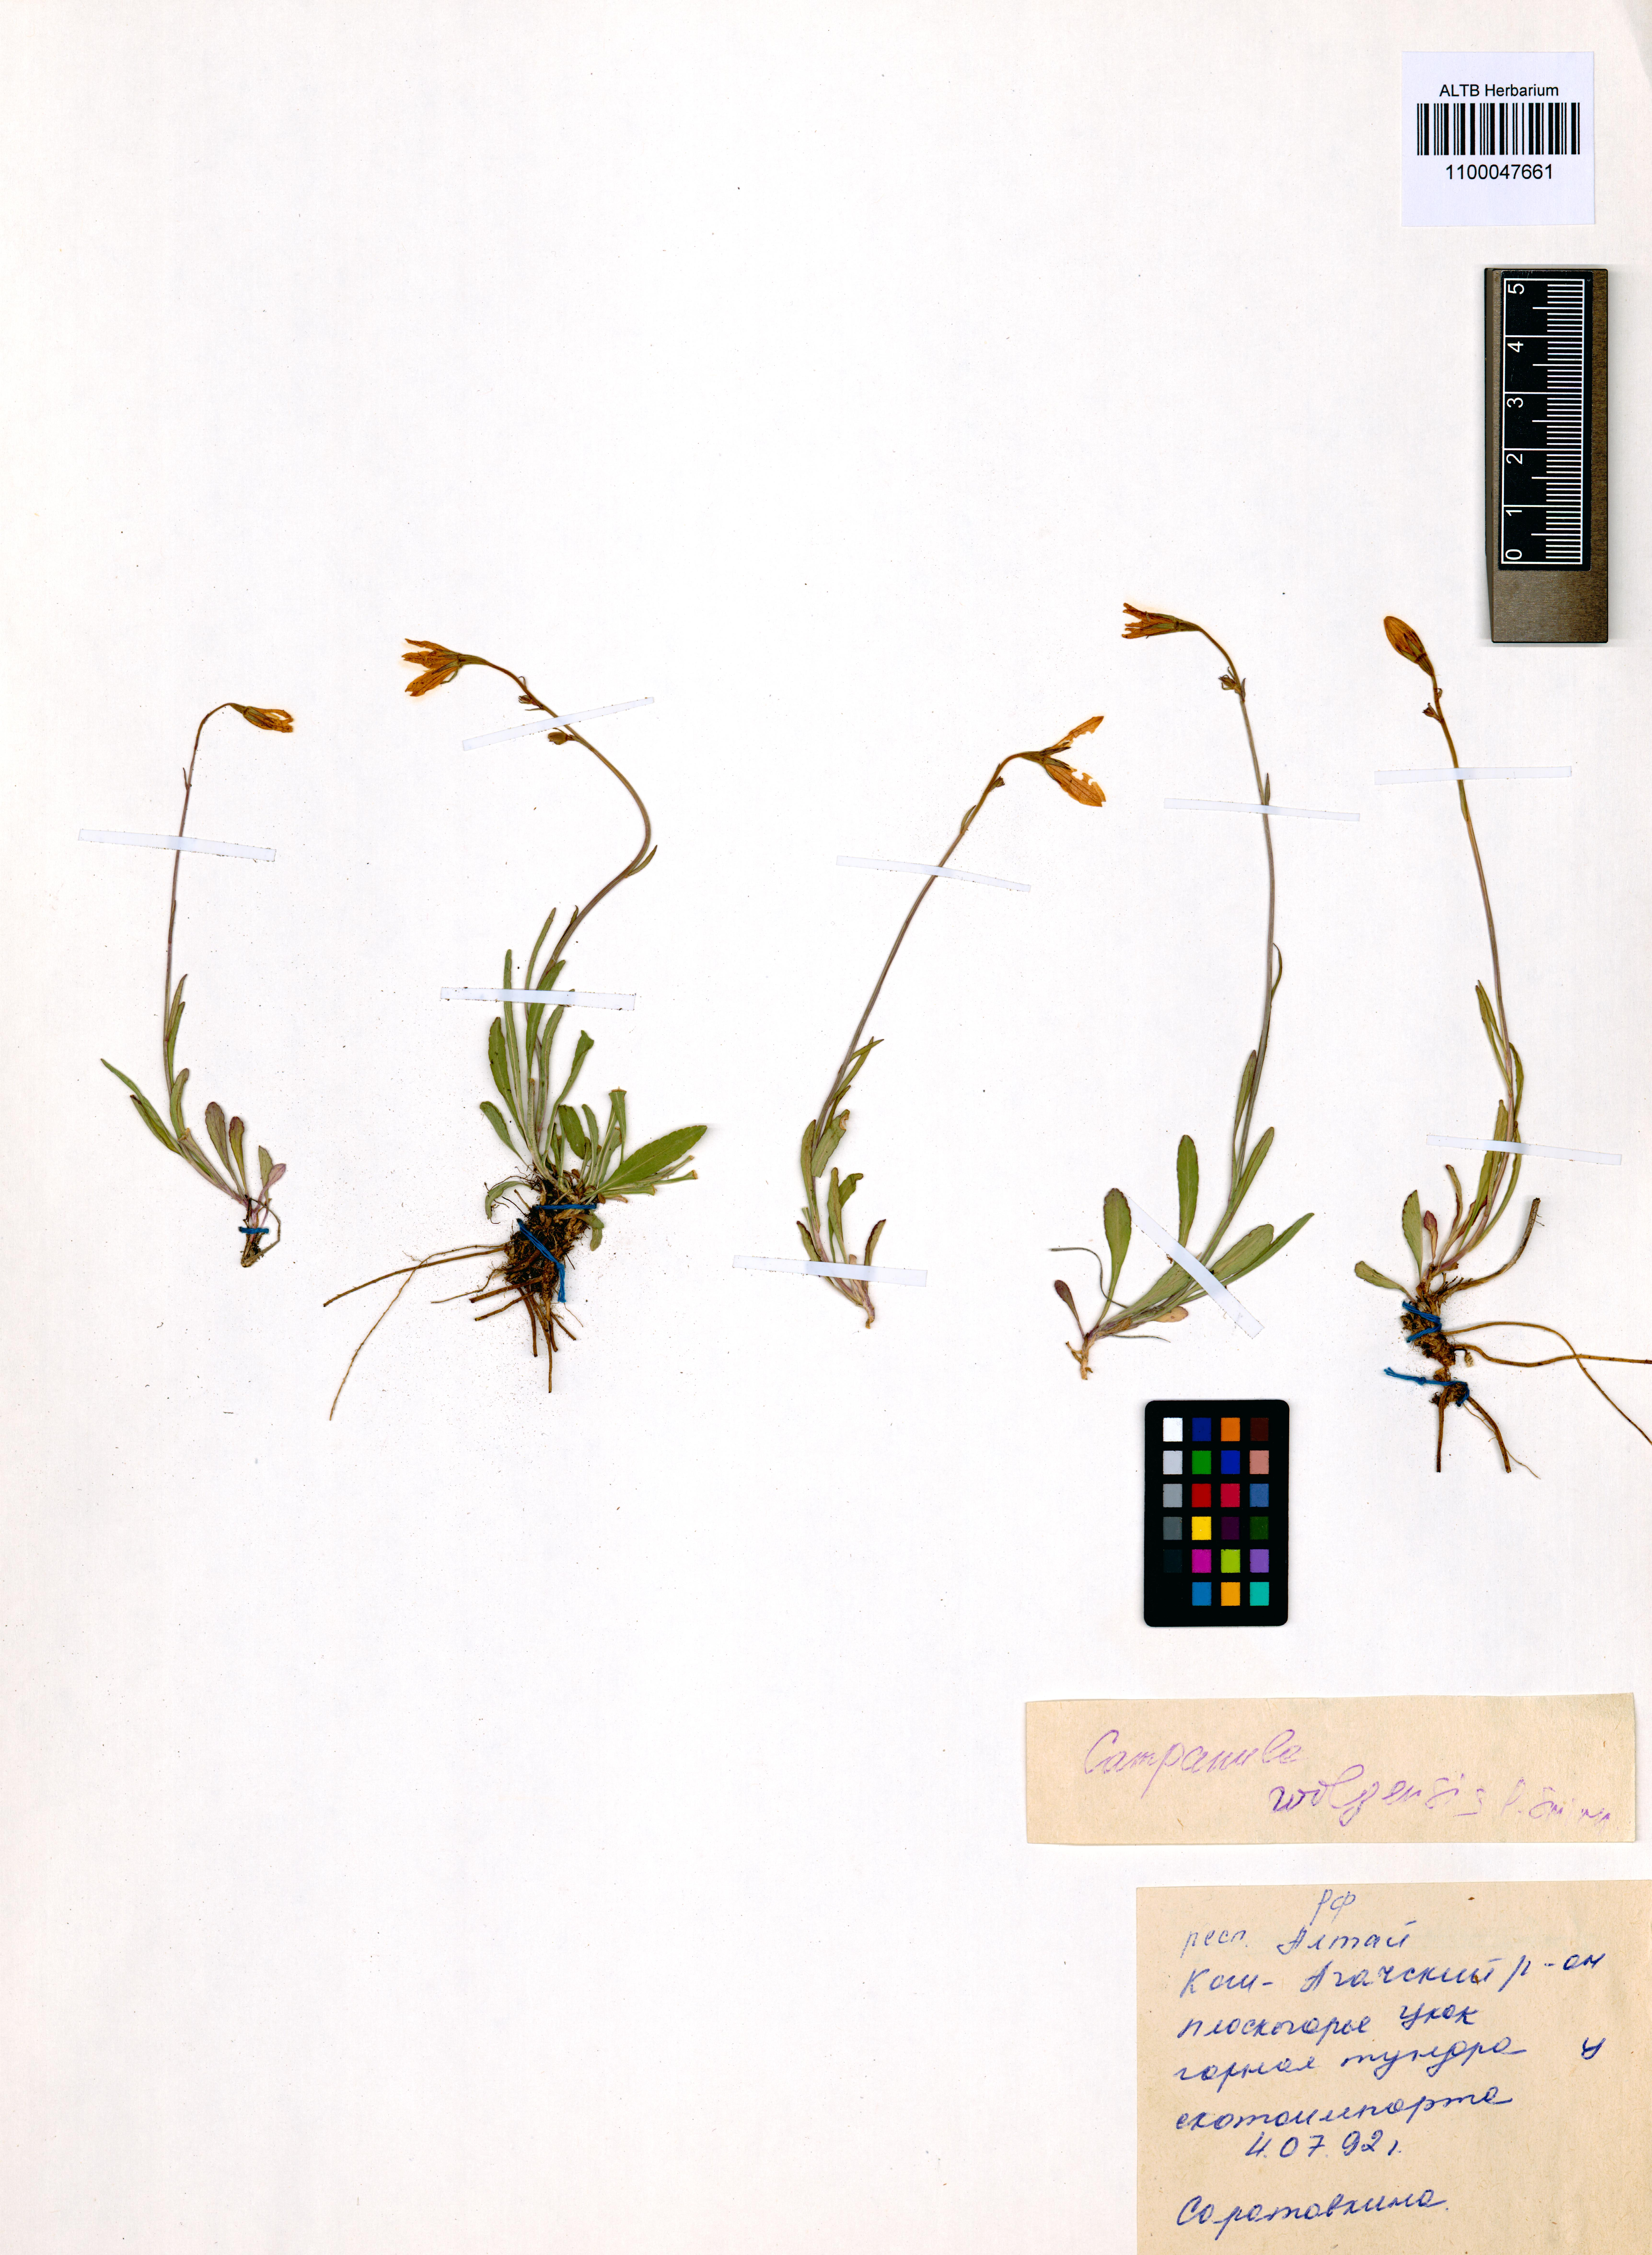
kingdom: Plantae
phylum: Tracheophyta
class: Magnoliopsida
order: Asterales
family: Campanulaceae
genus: Campanula
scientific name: Campanula stevenii
